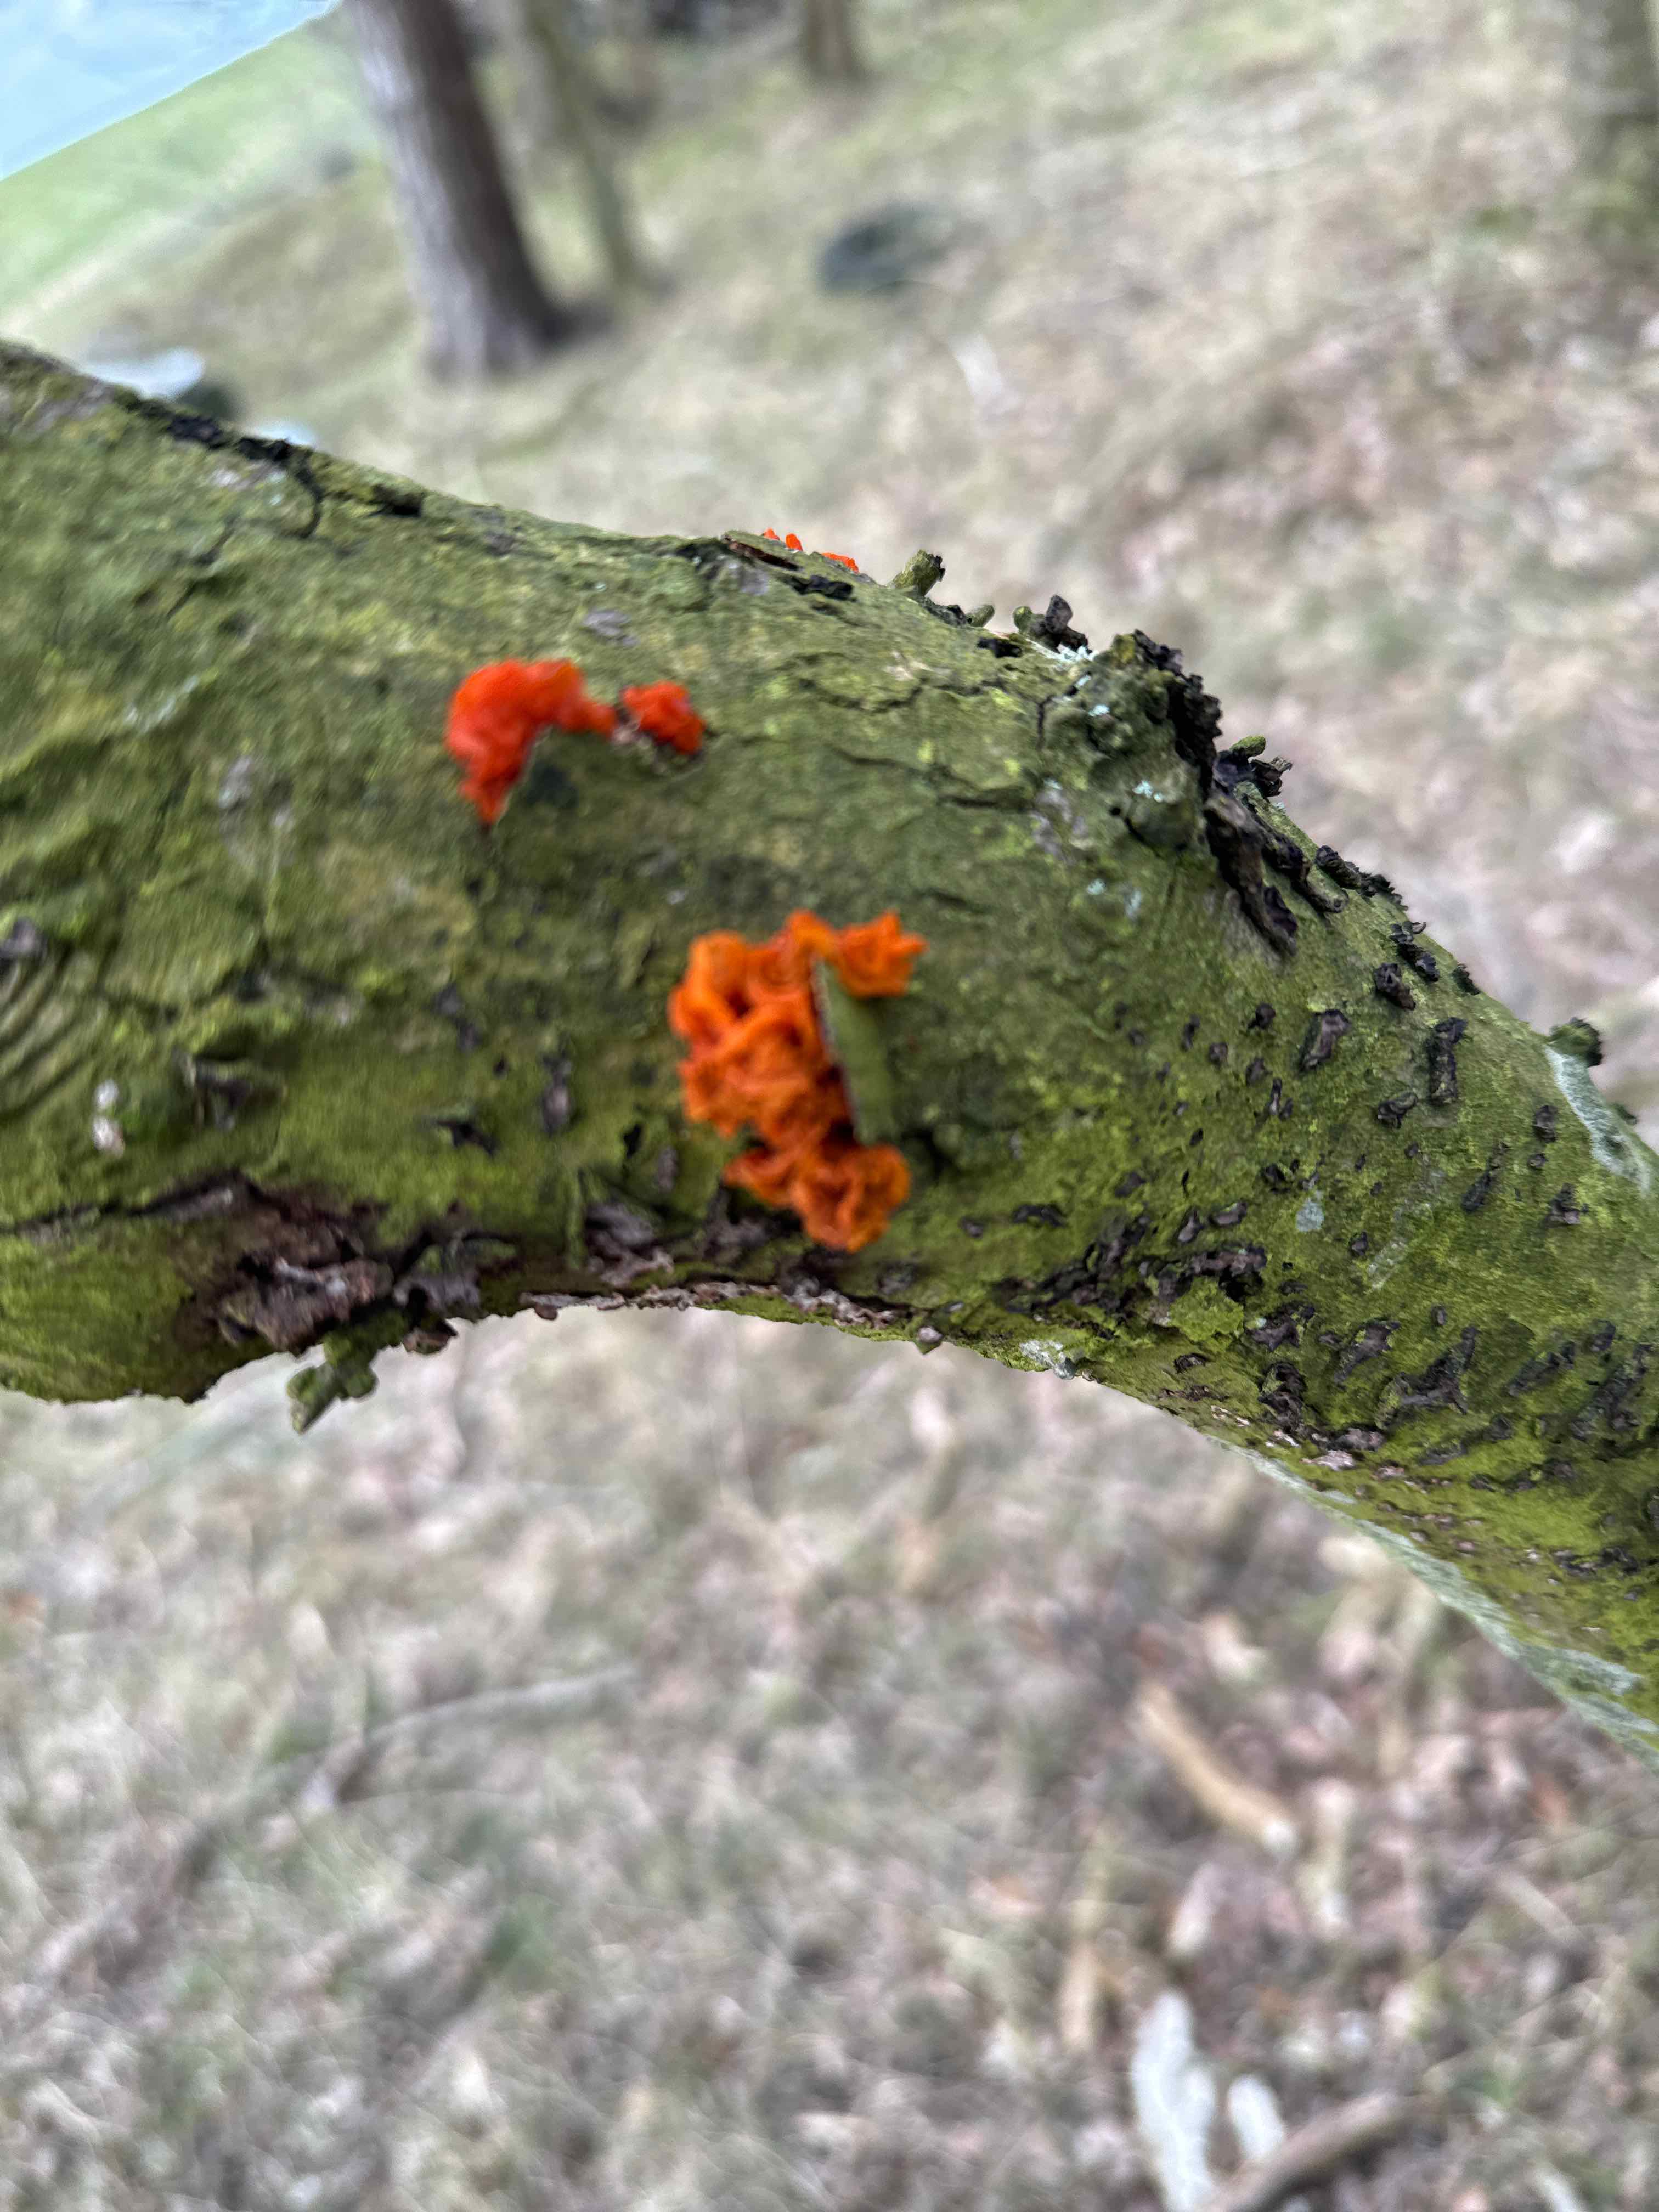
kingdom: Fungi
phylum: Basidiomycota
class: Tremellomycetes
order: Tremellales
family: Tremellaceae
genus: Tremella
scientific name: Tremella mesenterica
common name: gul bævresvamp
